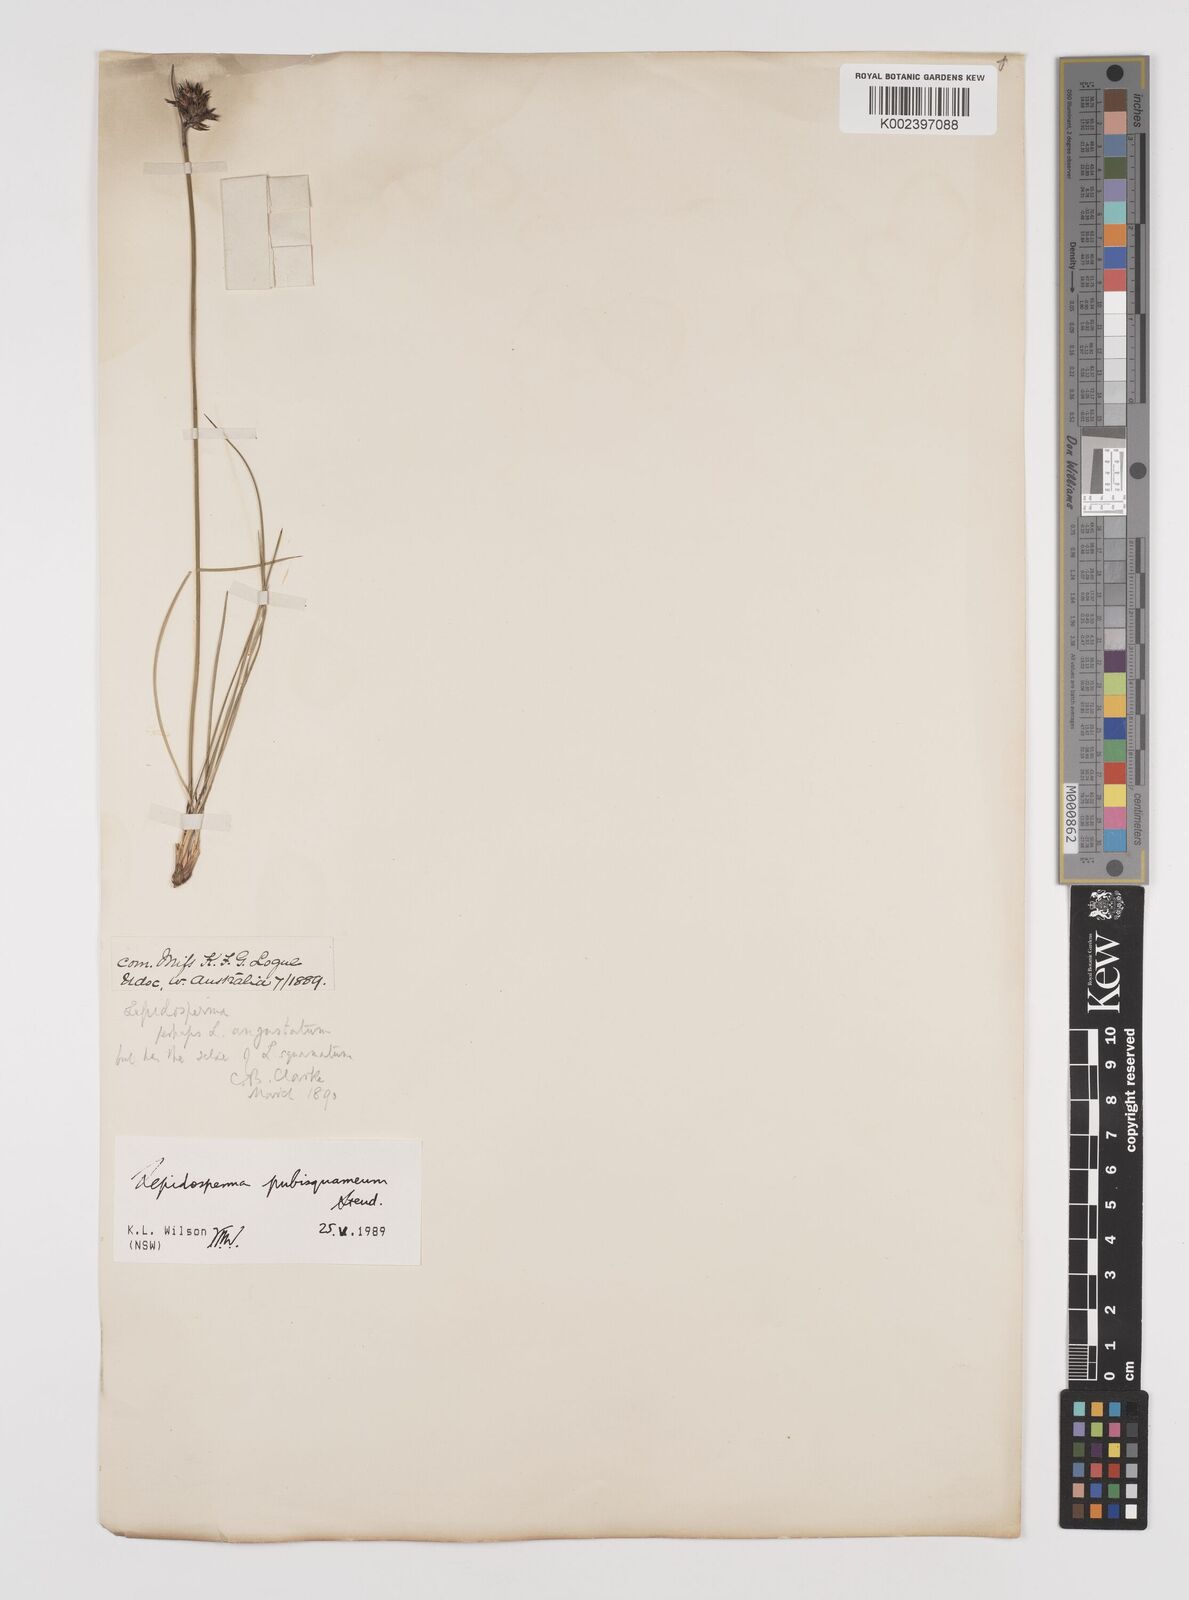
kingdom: Plantae
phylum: Tracheophyta
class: Liliopsida
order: Poales
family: Cyperaceae
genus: Lepidosperma
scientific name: Lepidosperma pubisquameum
